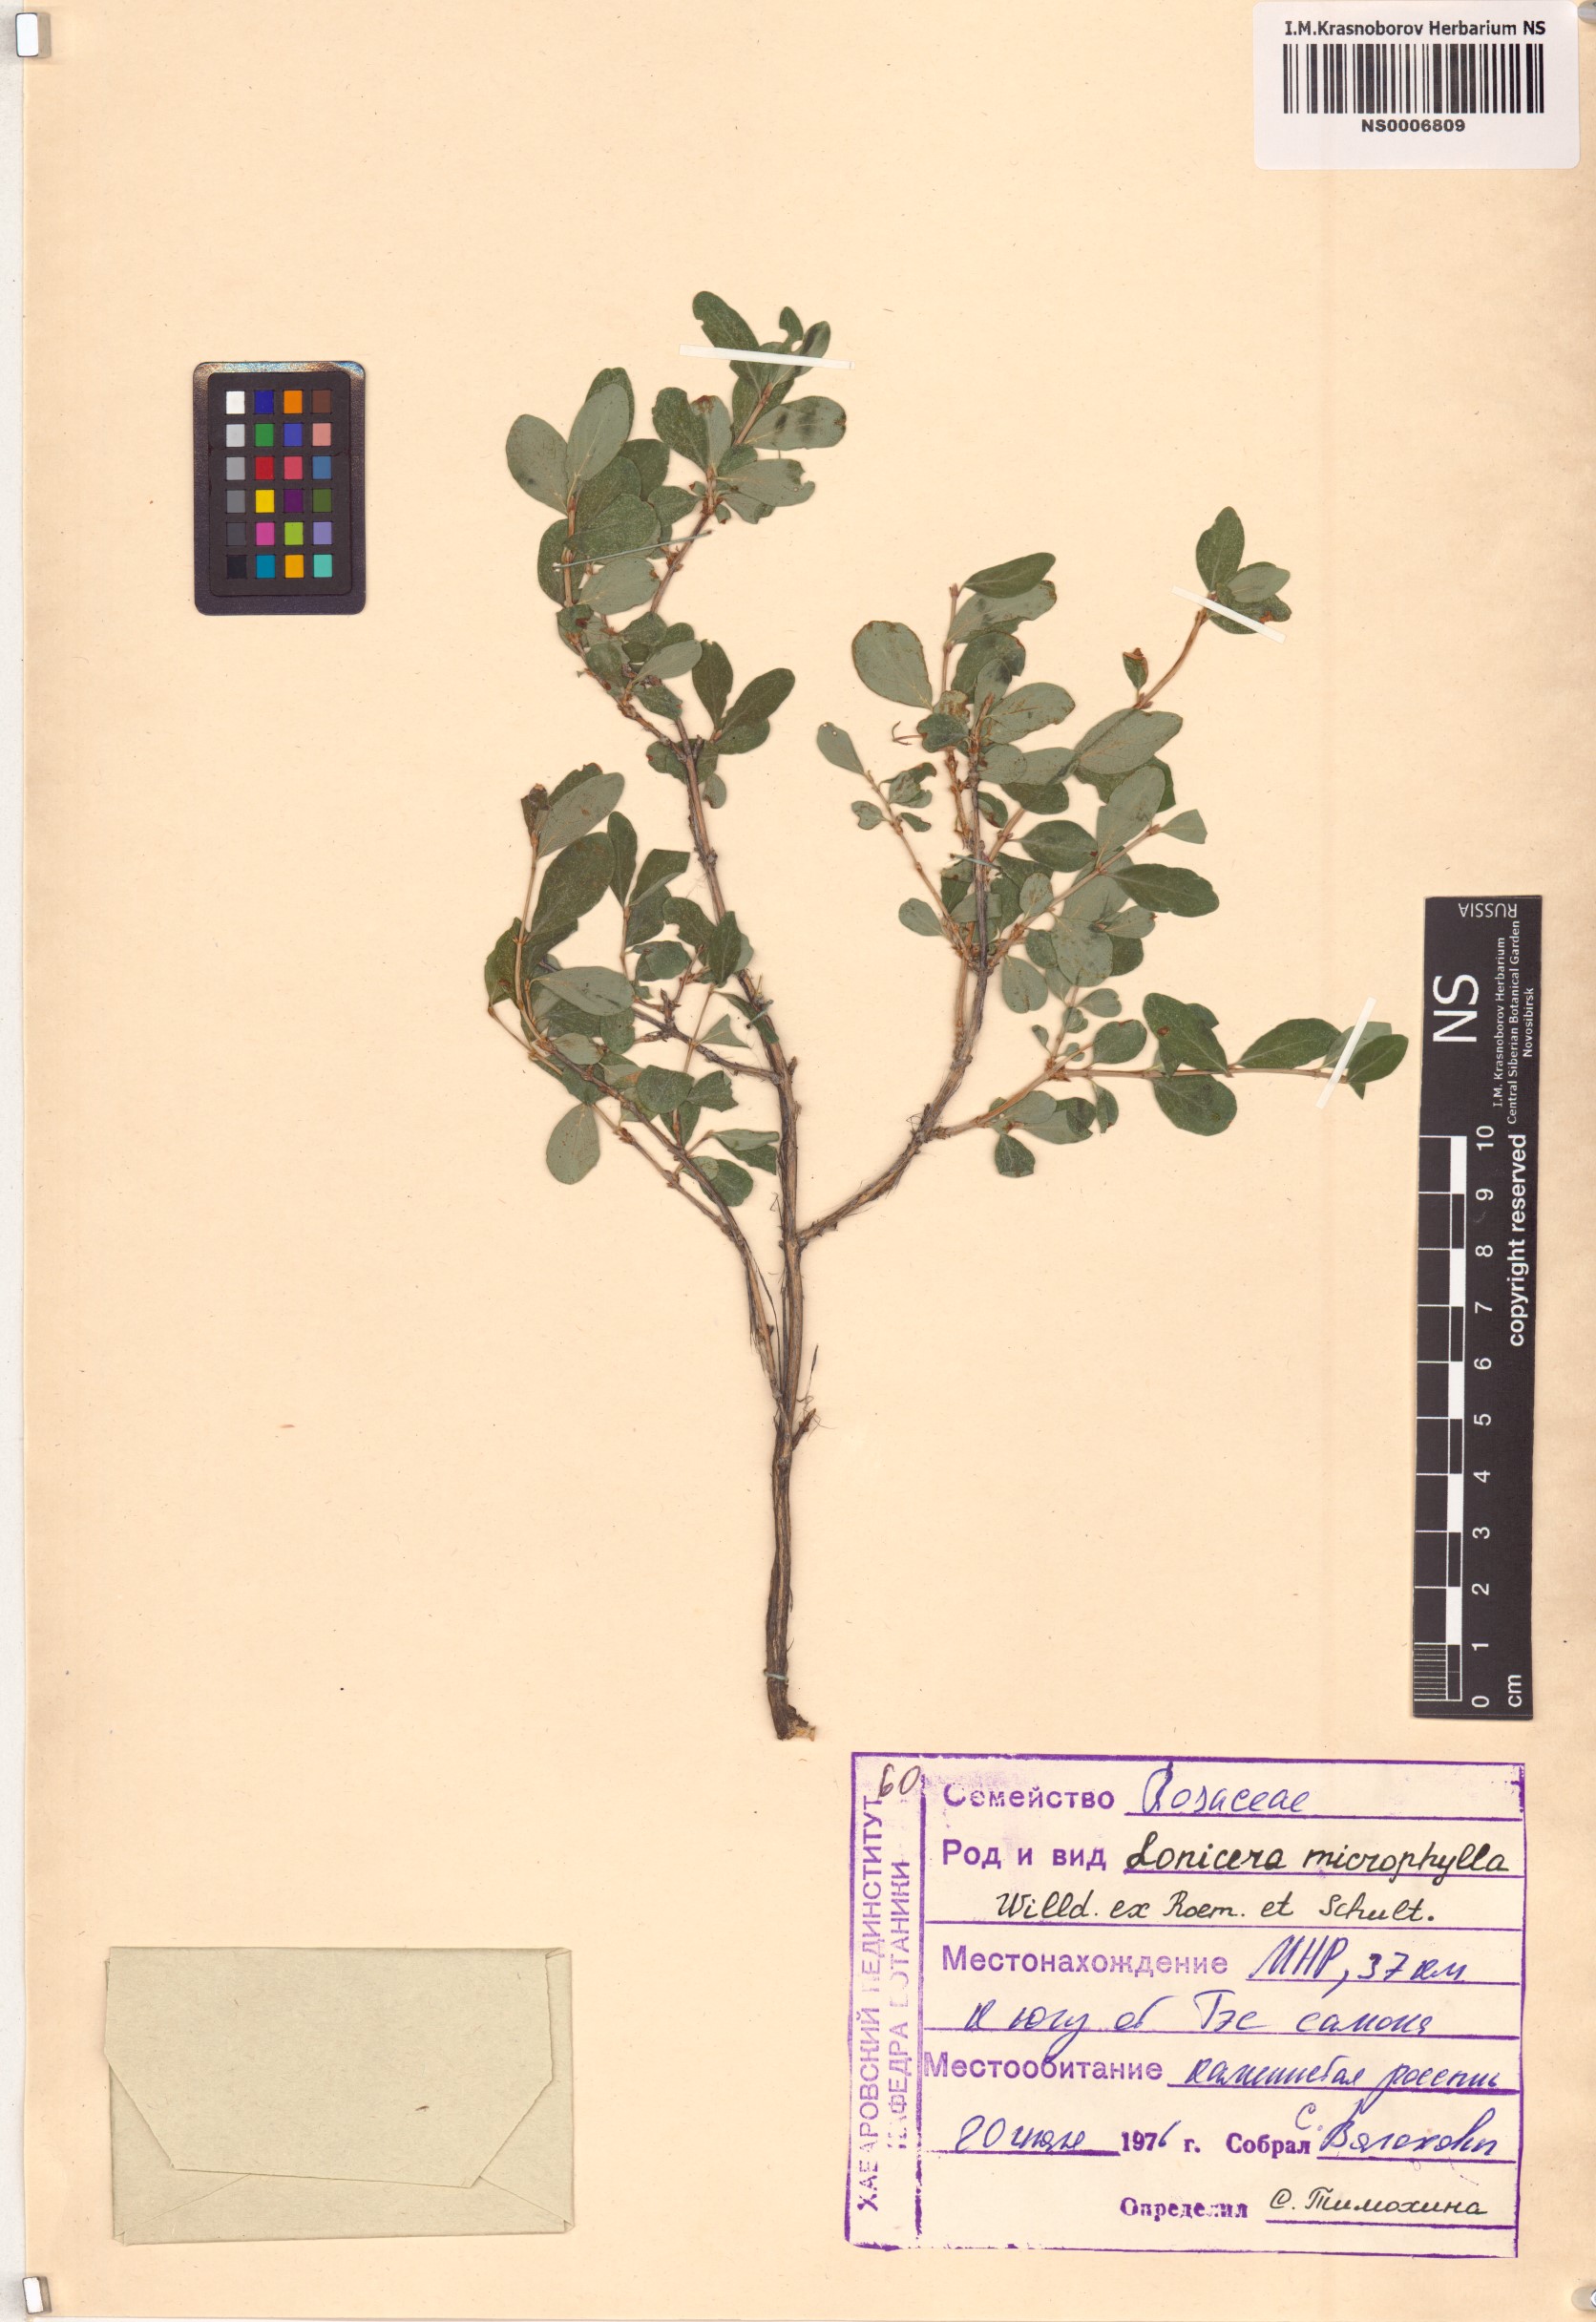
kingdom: Plantae
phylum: Tracheophyta
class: Magnoliopsida
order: Dipsacales
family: Caprifoliaceae
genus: Lonicera
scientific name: Lonicera microphylla
